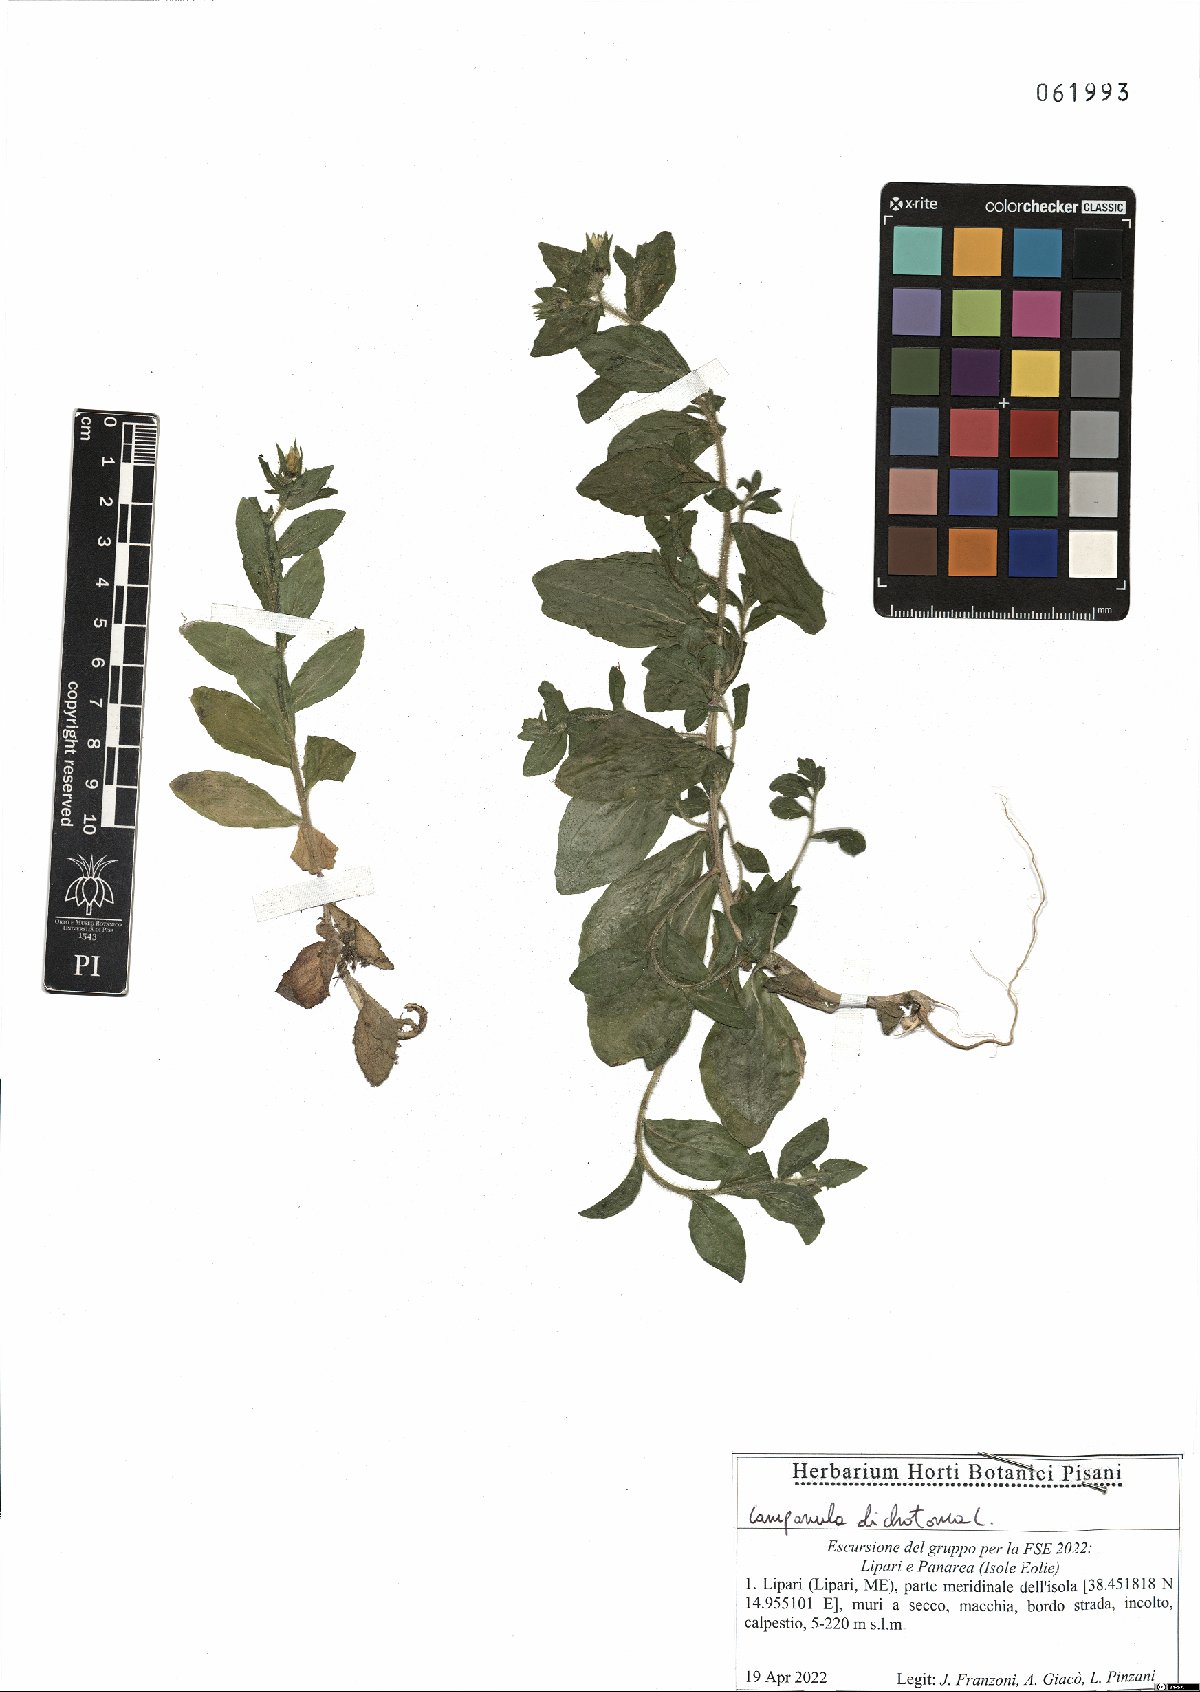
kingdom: Plantae
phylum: Tracheophyta
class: Magnoliopsida
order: Asterales
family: Campanulaceae
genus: Campanula
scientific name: Campanula dichotoma
